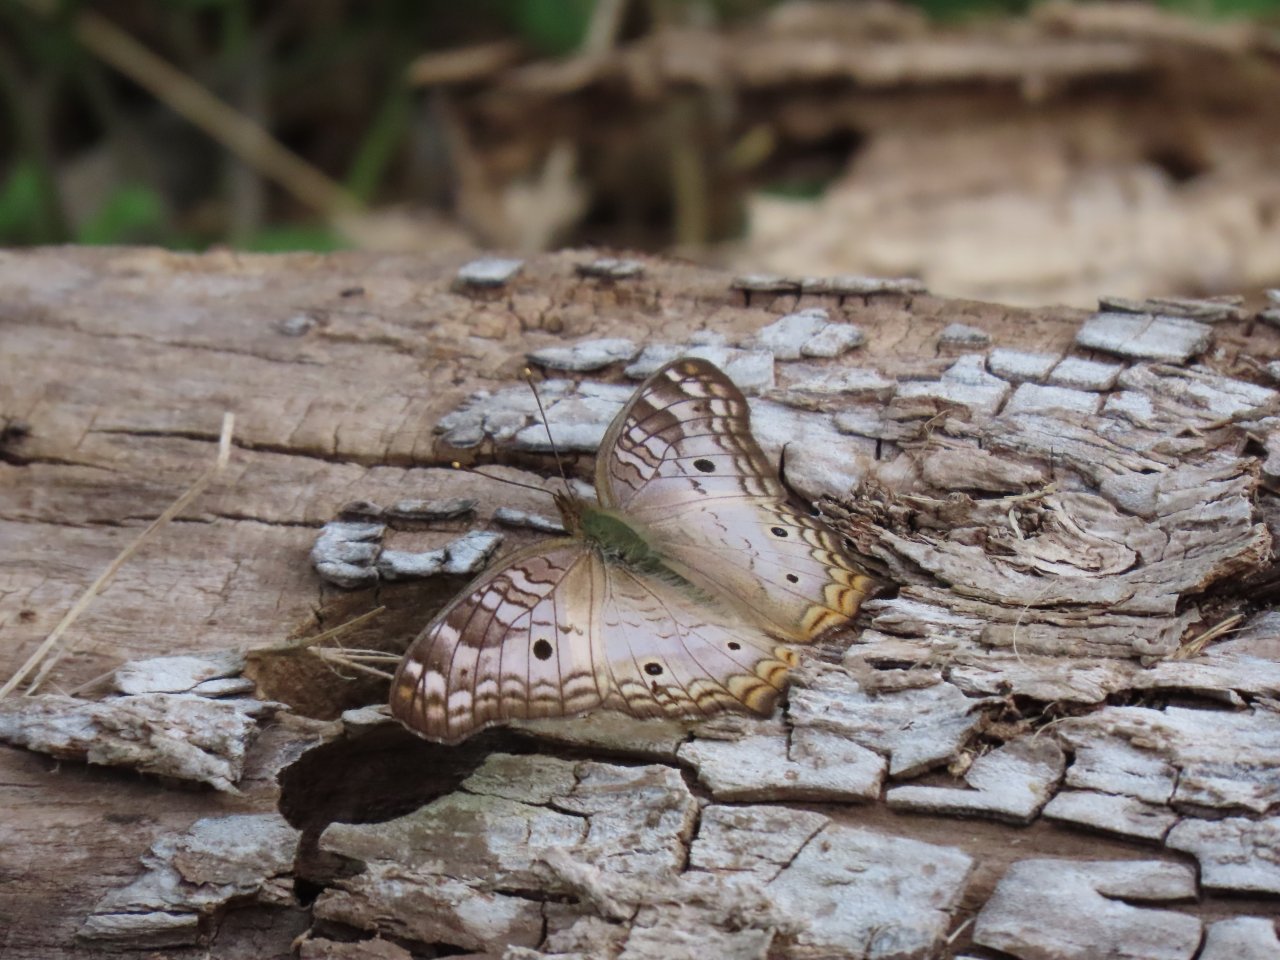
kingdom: Animalia
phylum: Arthropoda
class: Insecta
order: Lepidoptera
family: Nymphalidae
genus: Anartia
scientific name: Anartia jatrophae
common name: White Peacock
